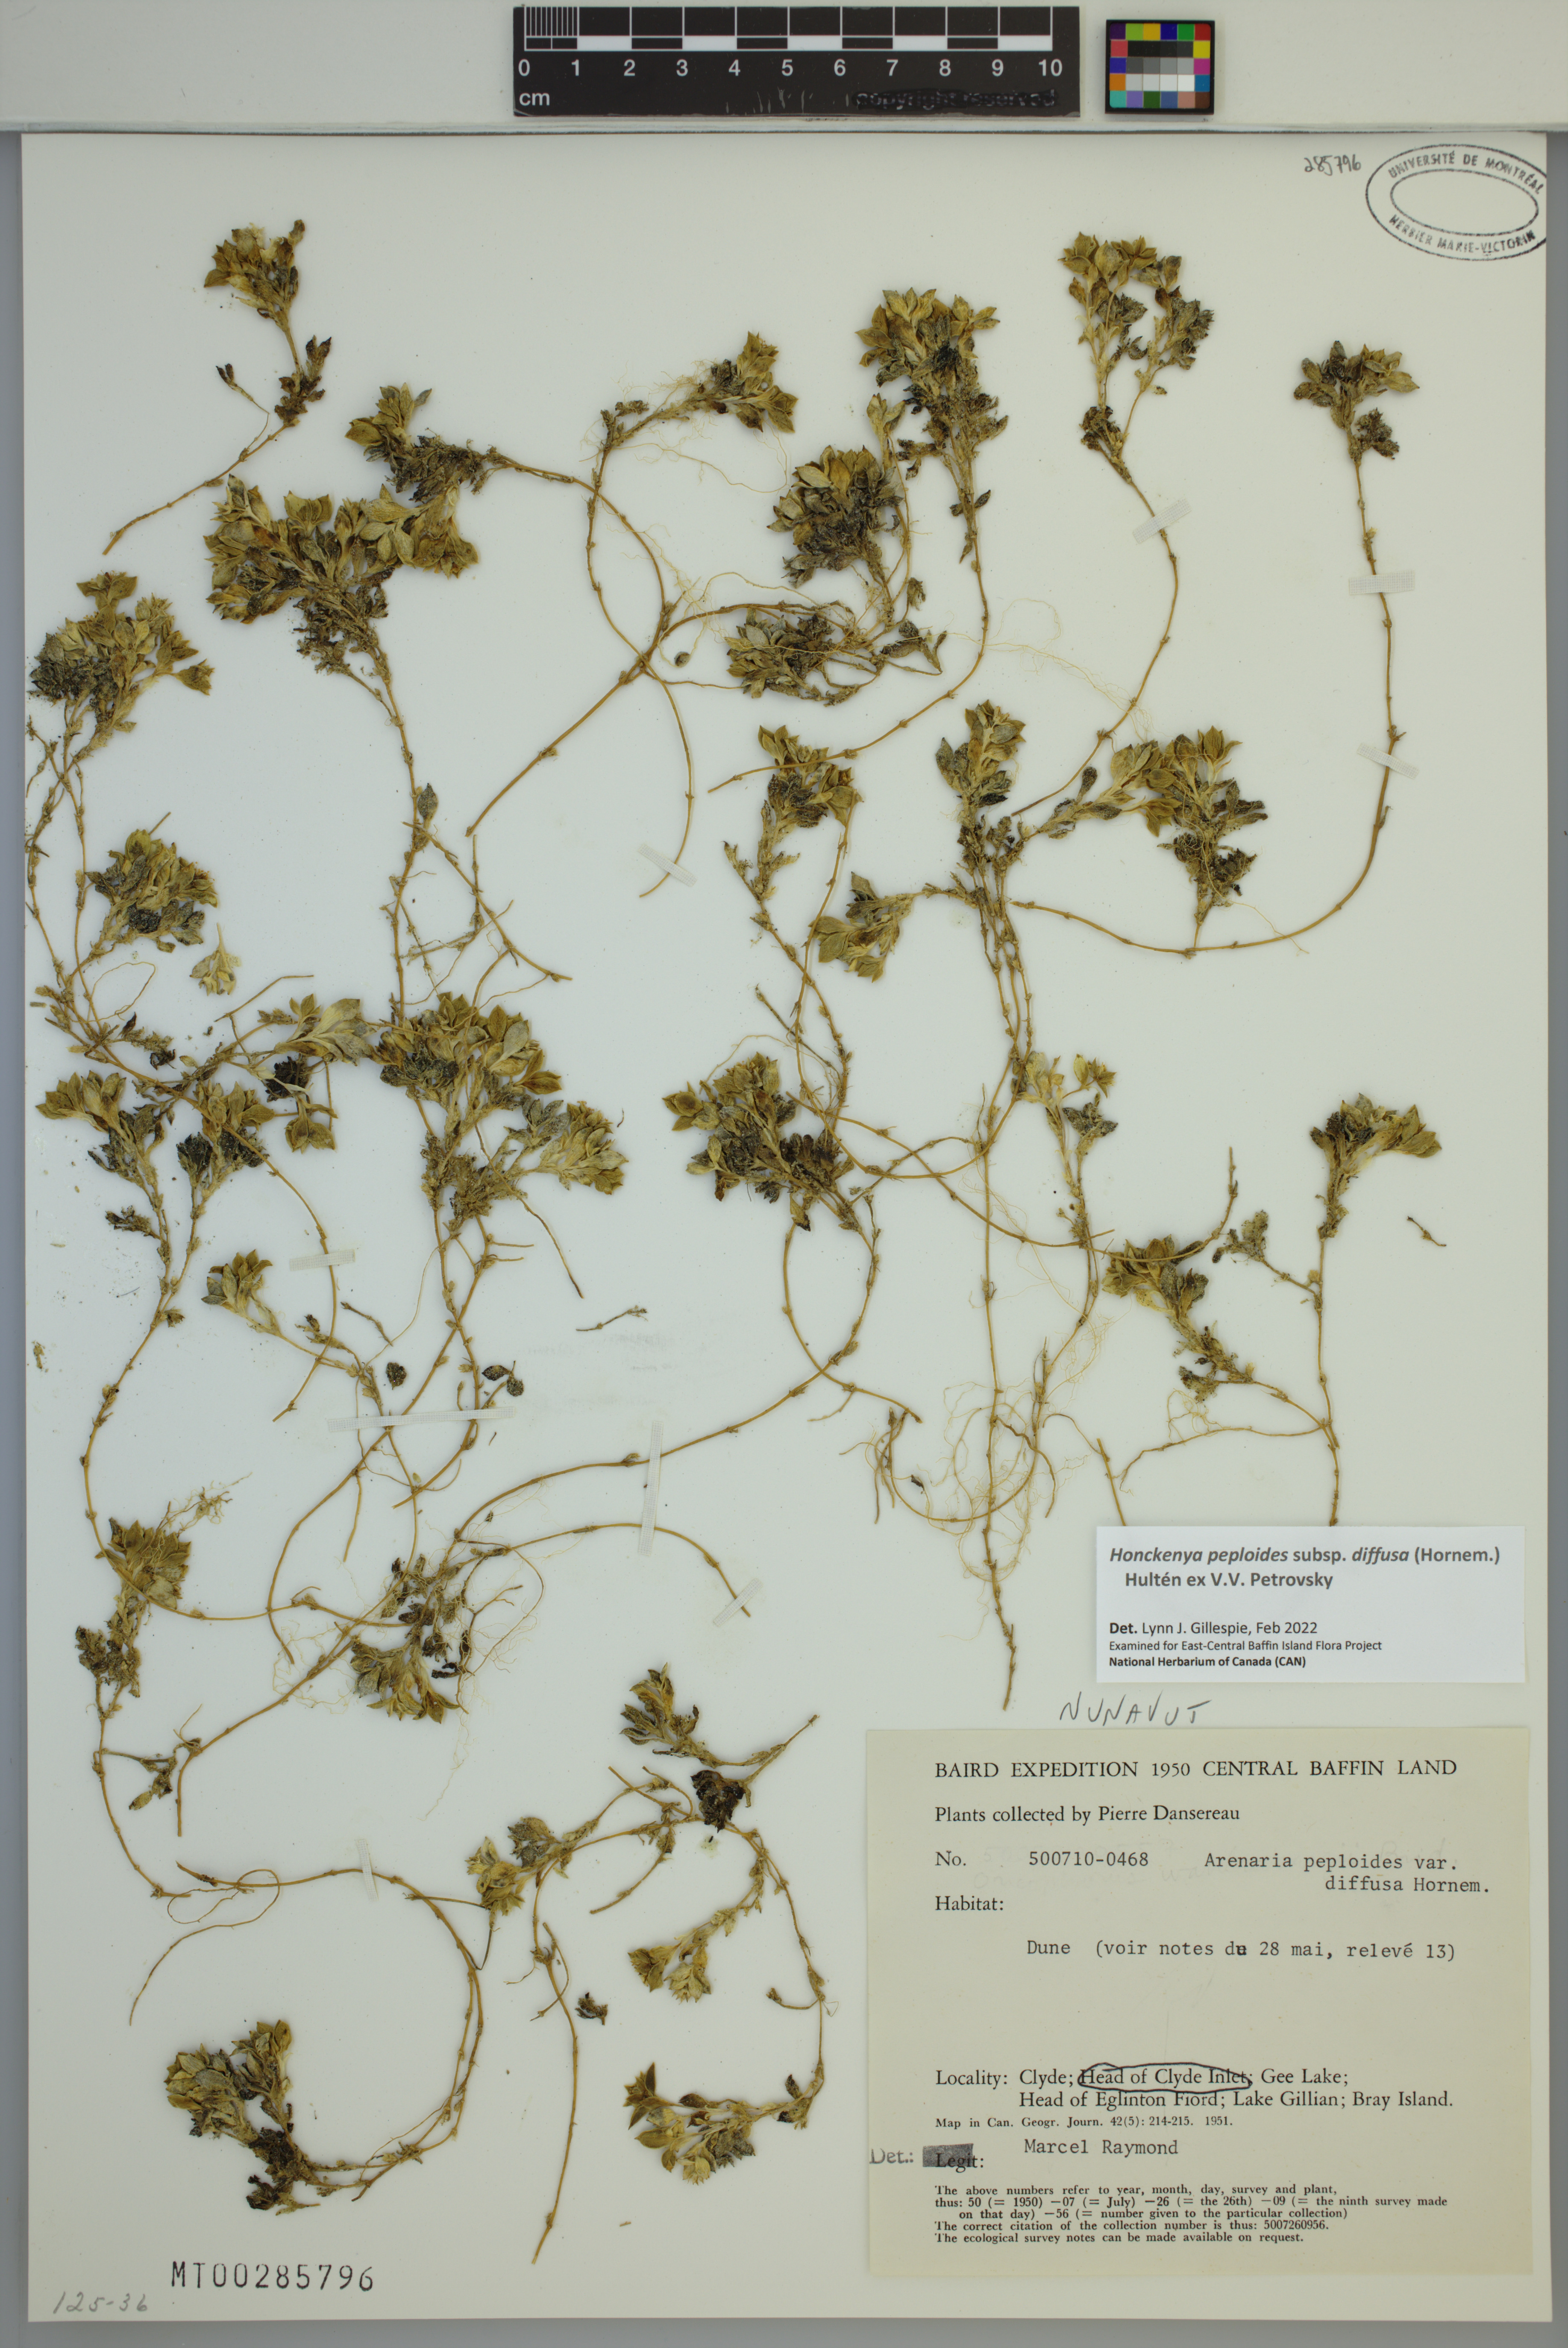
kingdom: Plantae
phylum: Tracheophyta
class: Magnoliopsida
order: Caryophyllales
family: Caryophyllaceae
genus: Honckenya
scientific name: Honckenya peploides
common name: Sea sandwort
